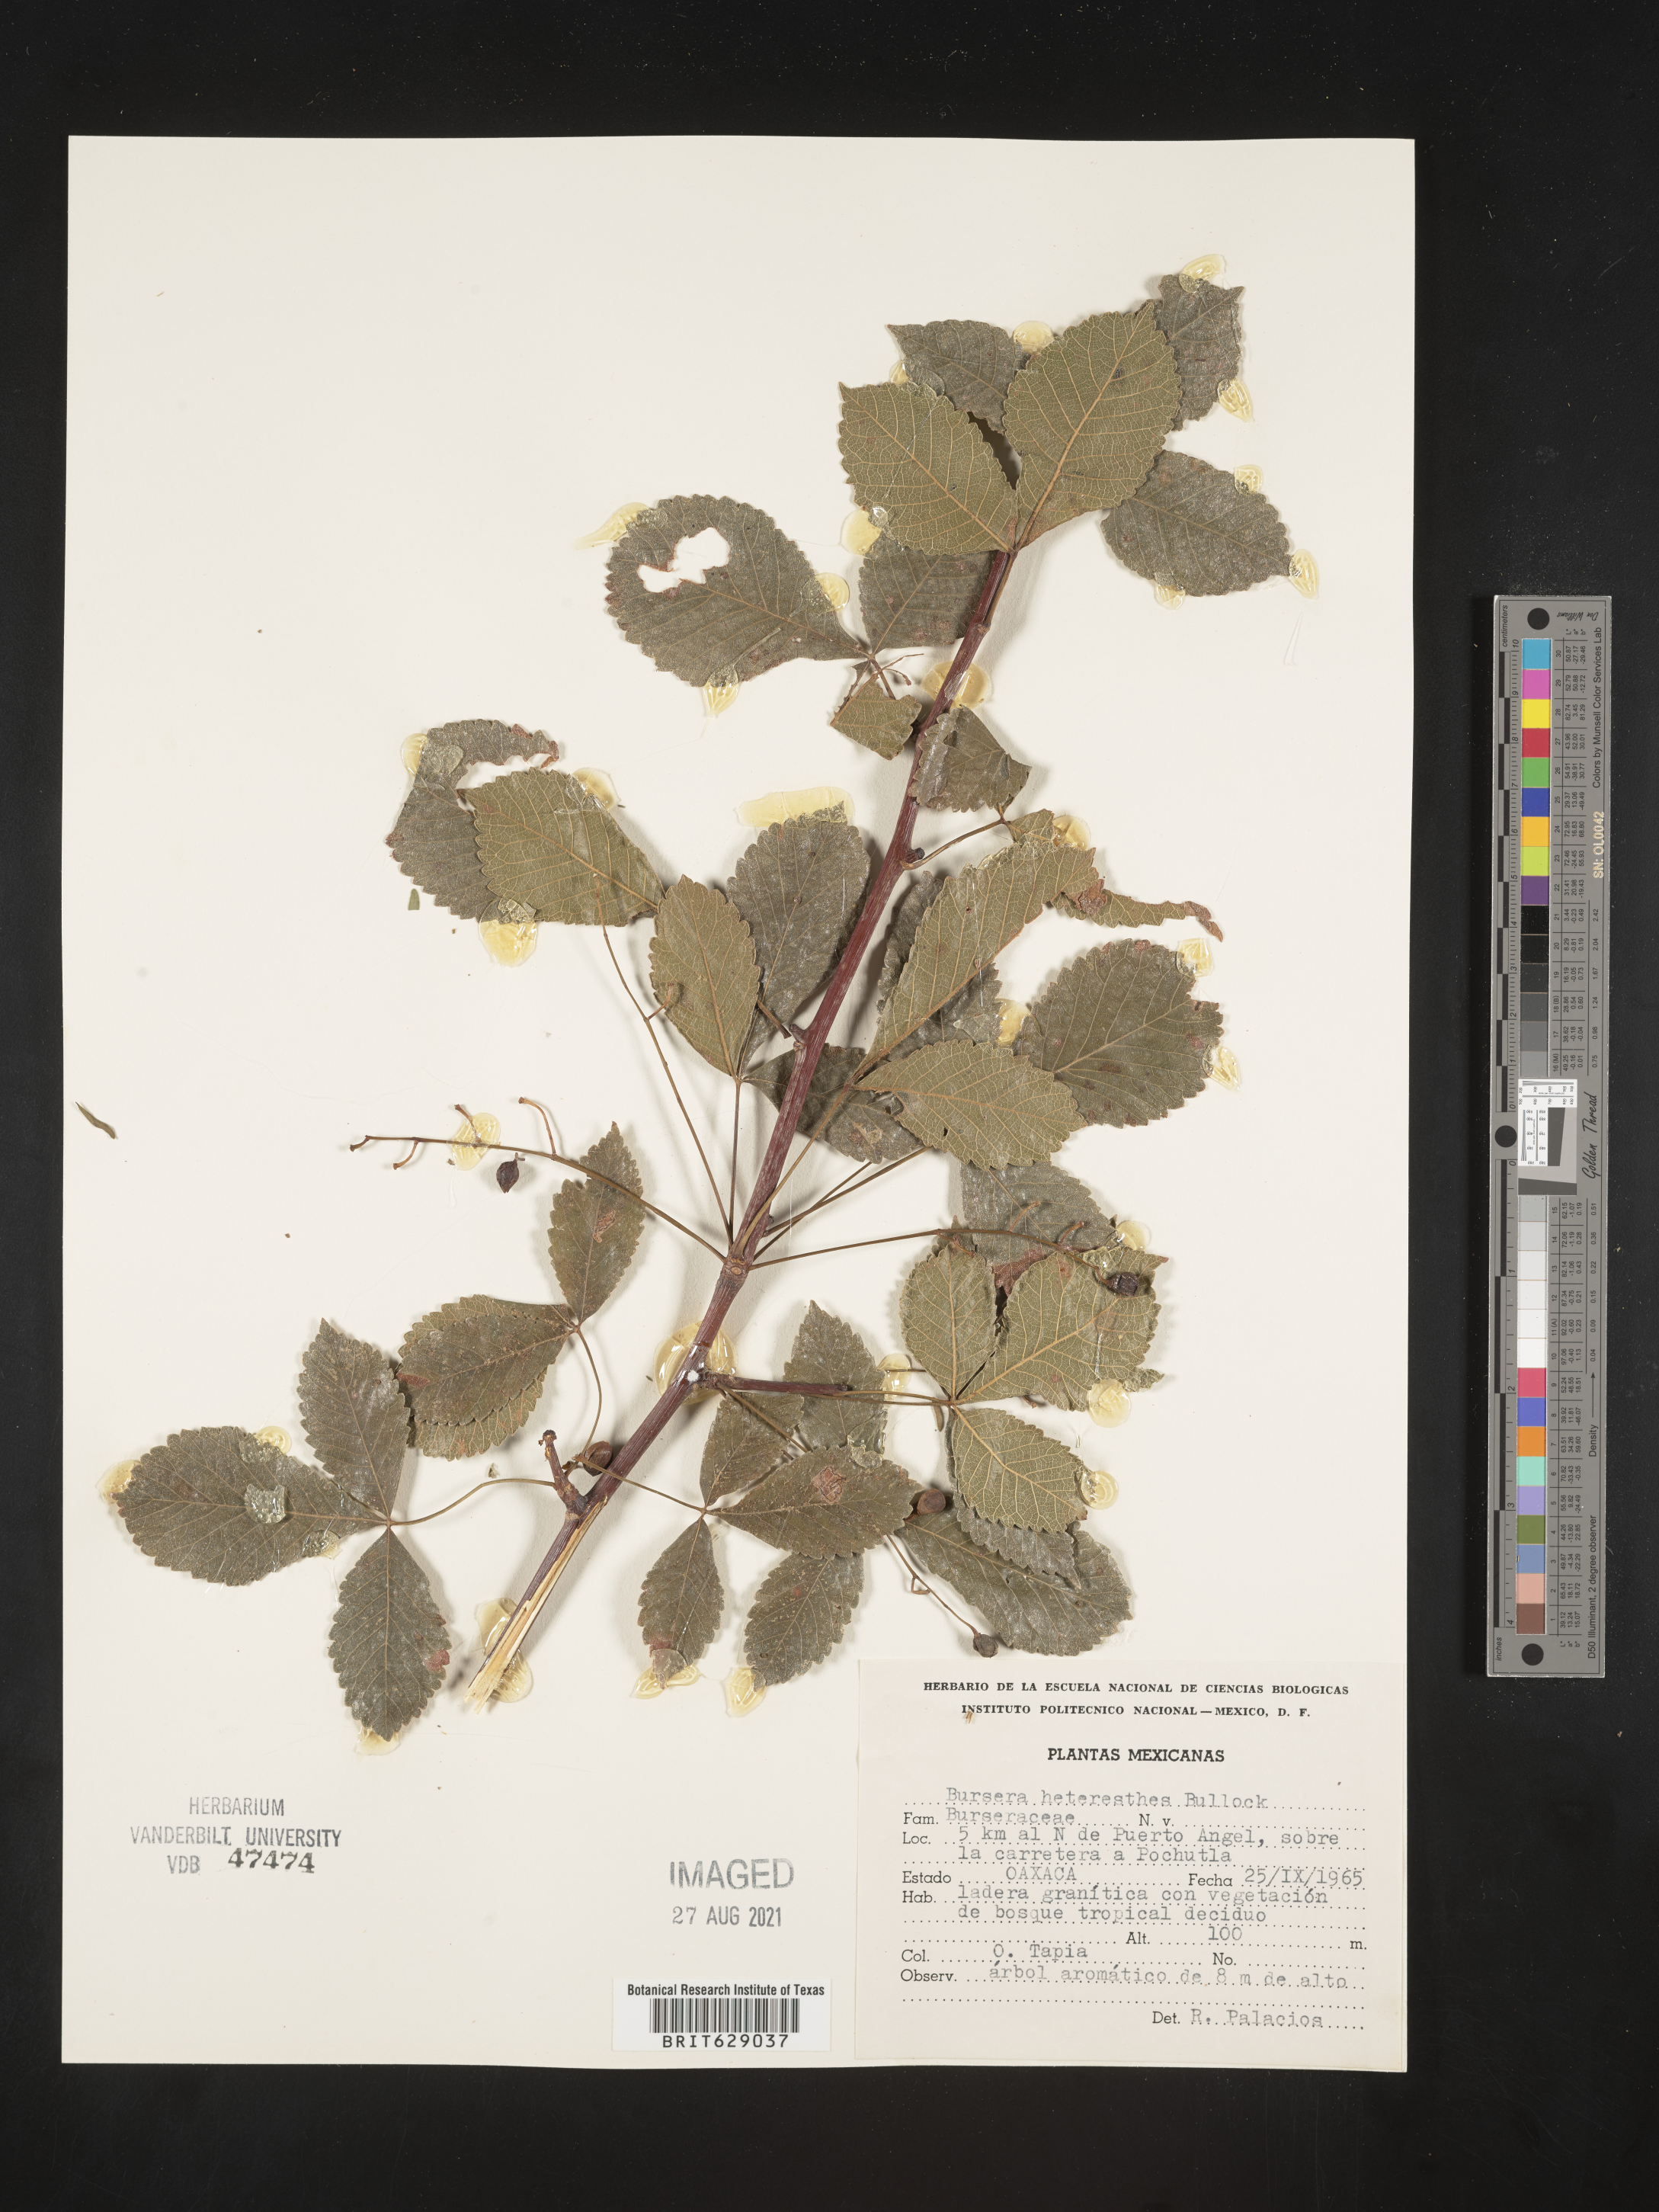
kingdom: Plantae
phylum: Tracheophyta
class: Magnoliopsida
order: Sapindales
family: Burseraceae
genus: Bursera
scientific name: Bursera
